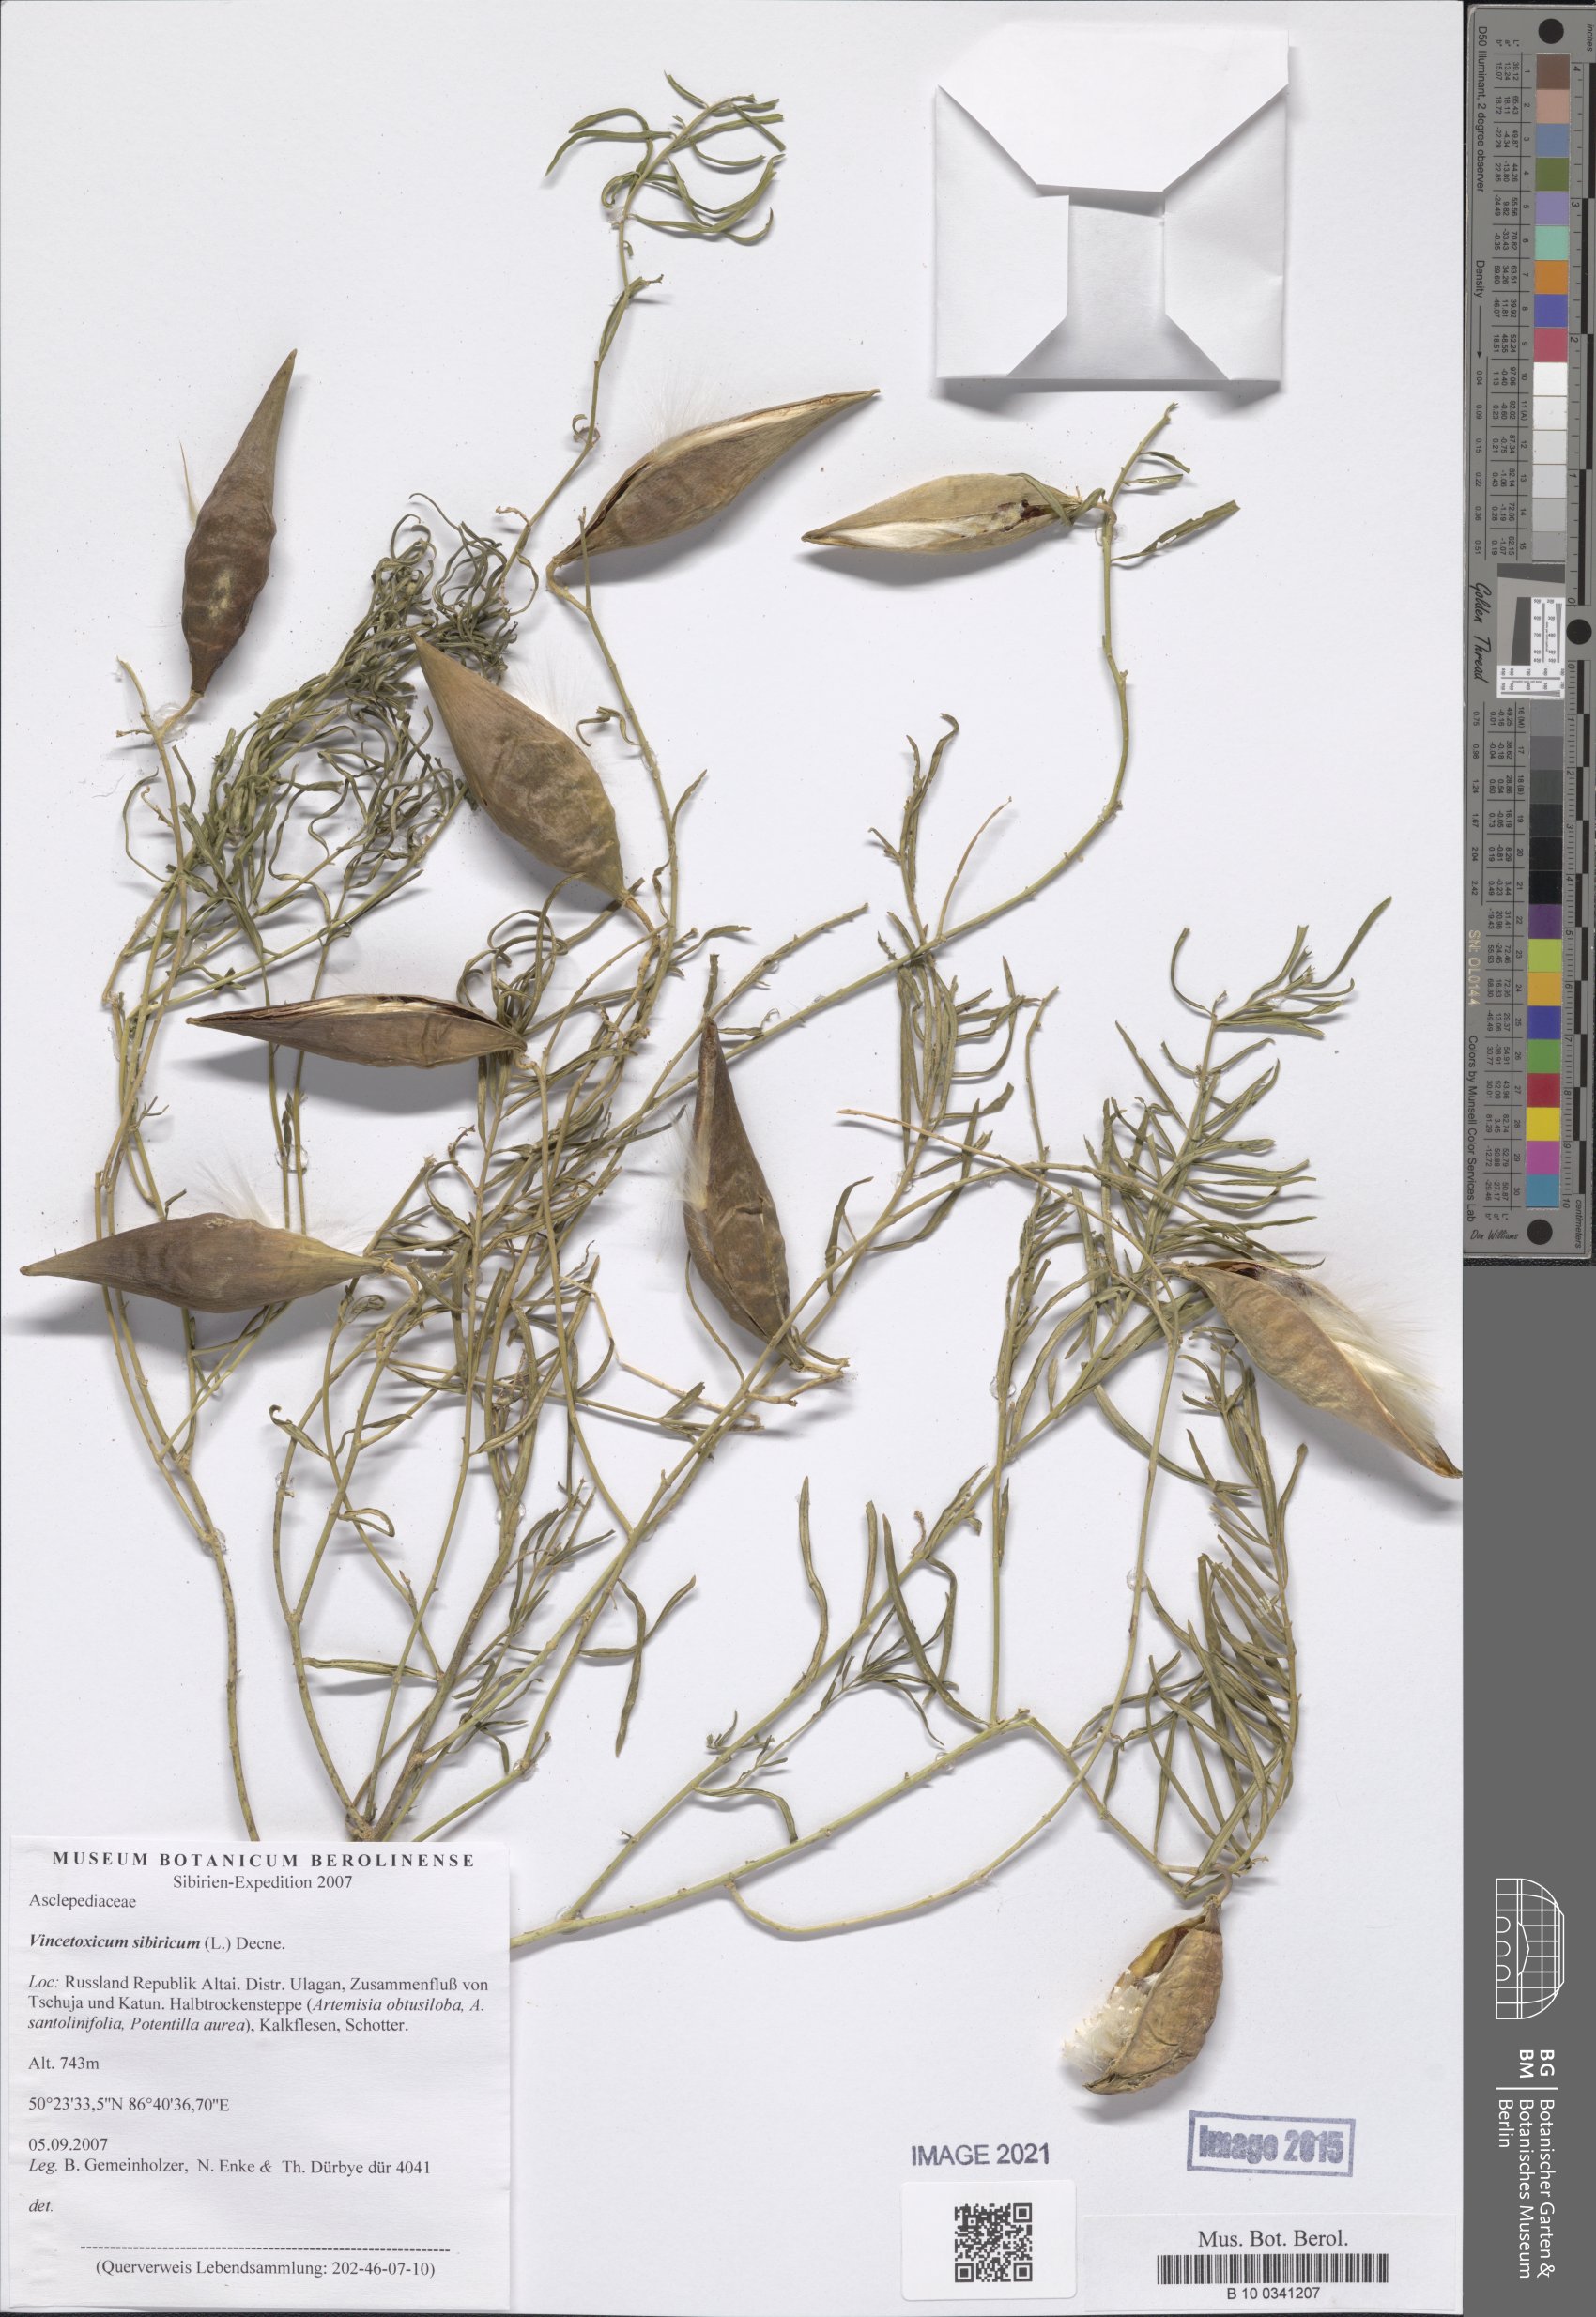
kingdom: Plantae
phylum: Tracheophyta
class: Magnoliopsida
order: Gentianales
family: Apocynaceae
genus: Cynanchum
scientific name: Cynanchum thesioides
